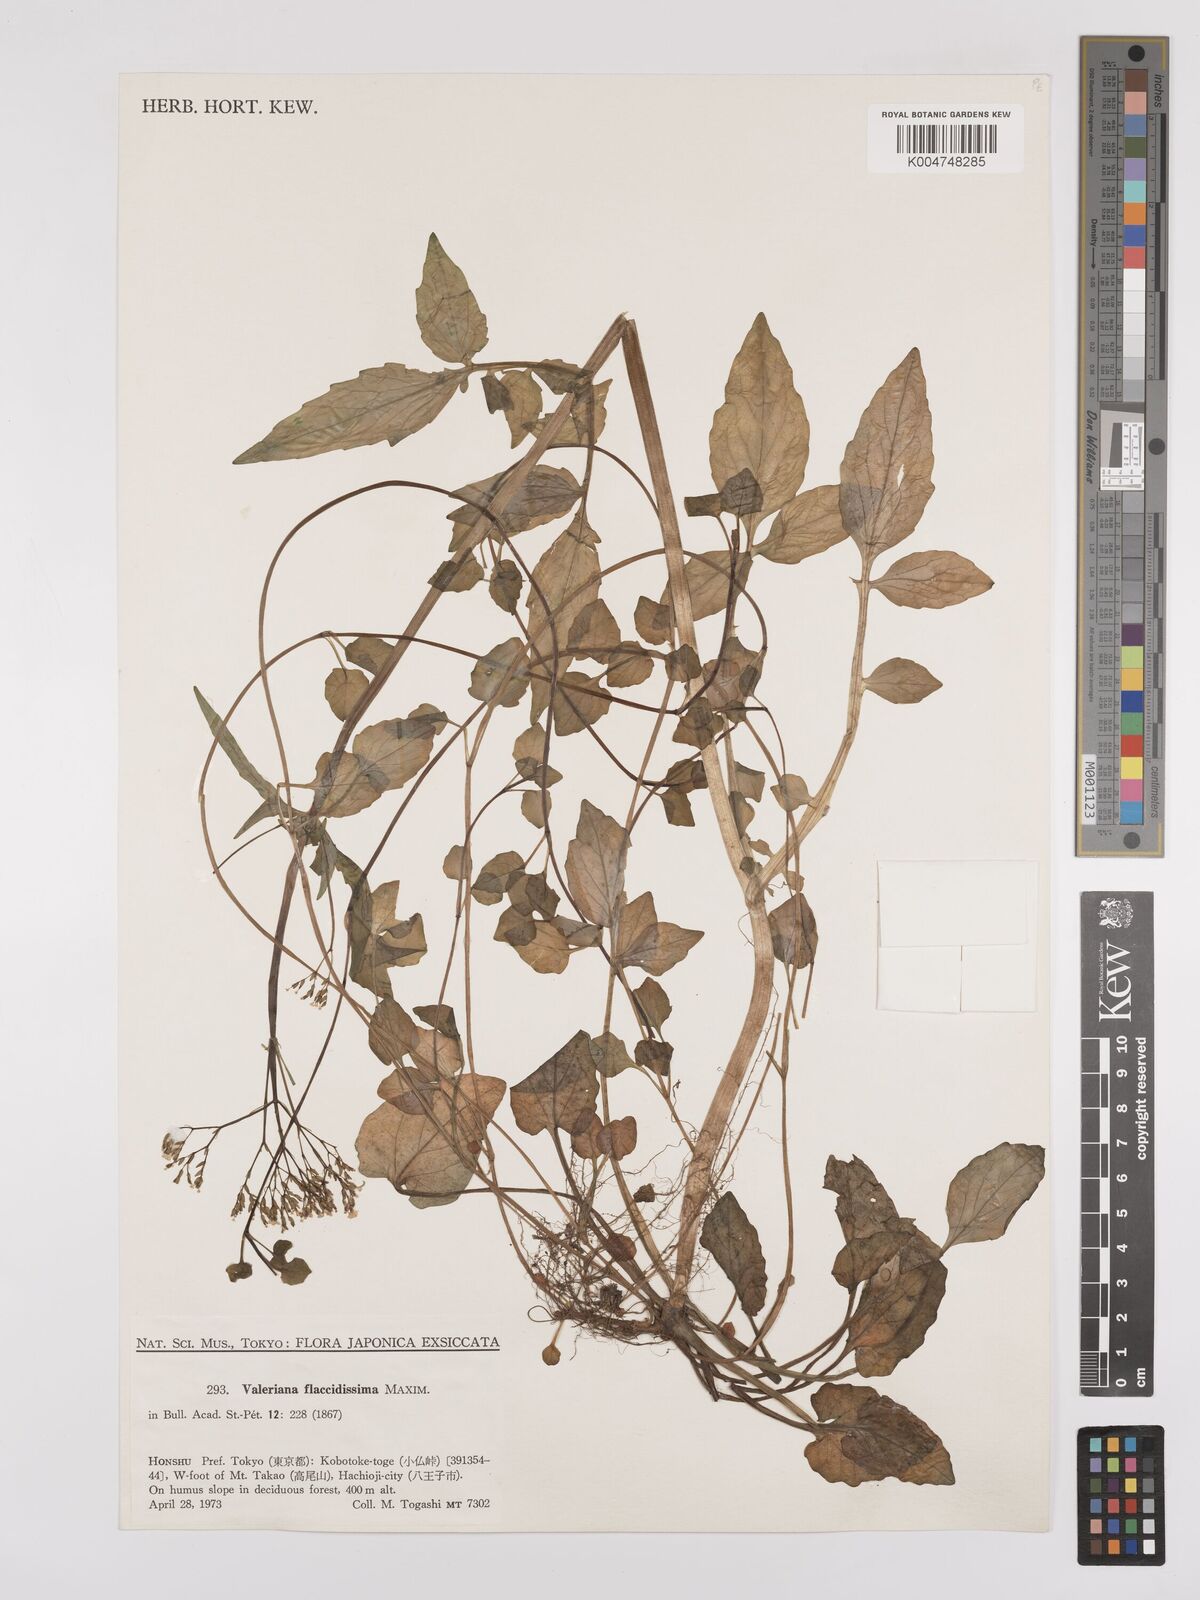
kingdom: Plantae
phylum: Tracheophyta
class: Magnoliopsida
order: Dipsacales
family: Caprifoliaceae
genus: Valeriana
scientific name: Valeriana flaccidissima
